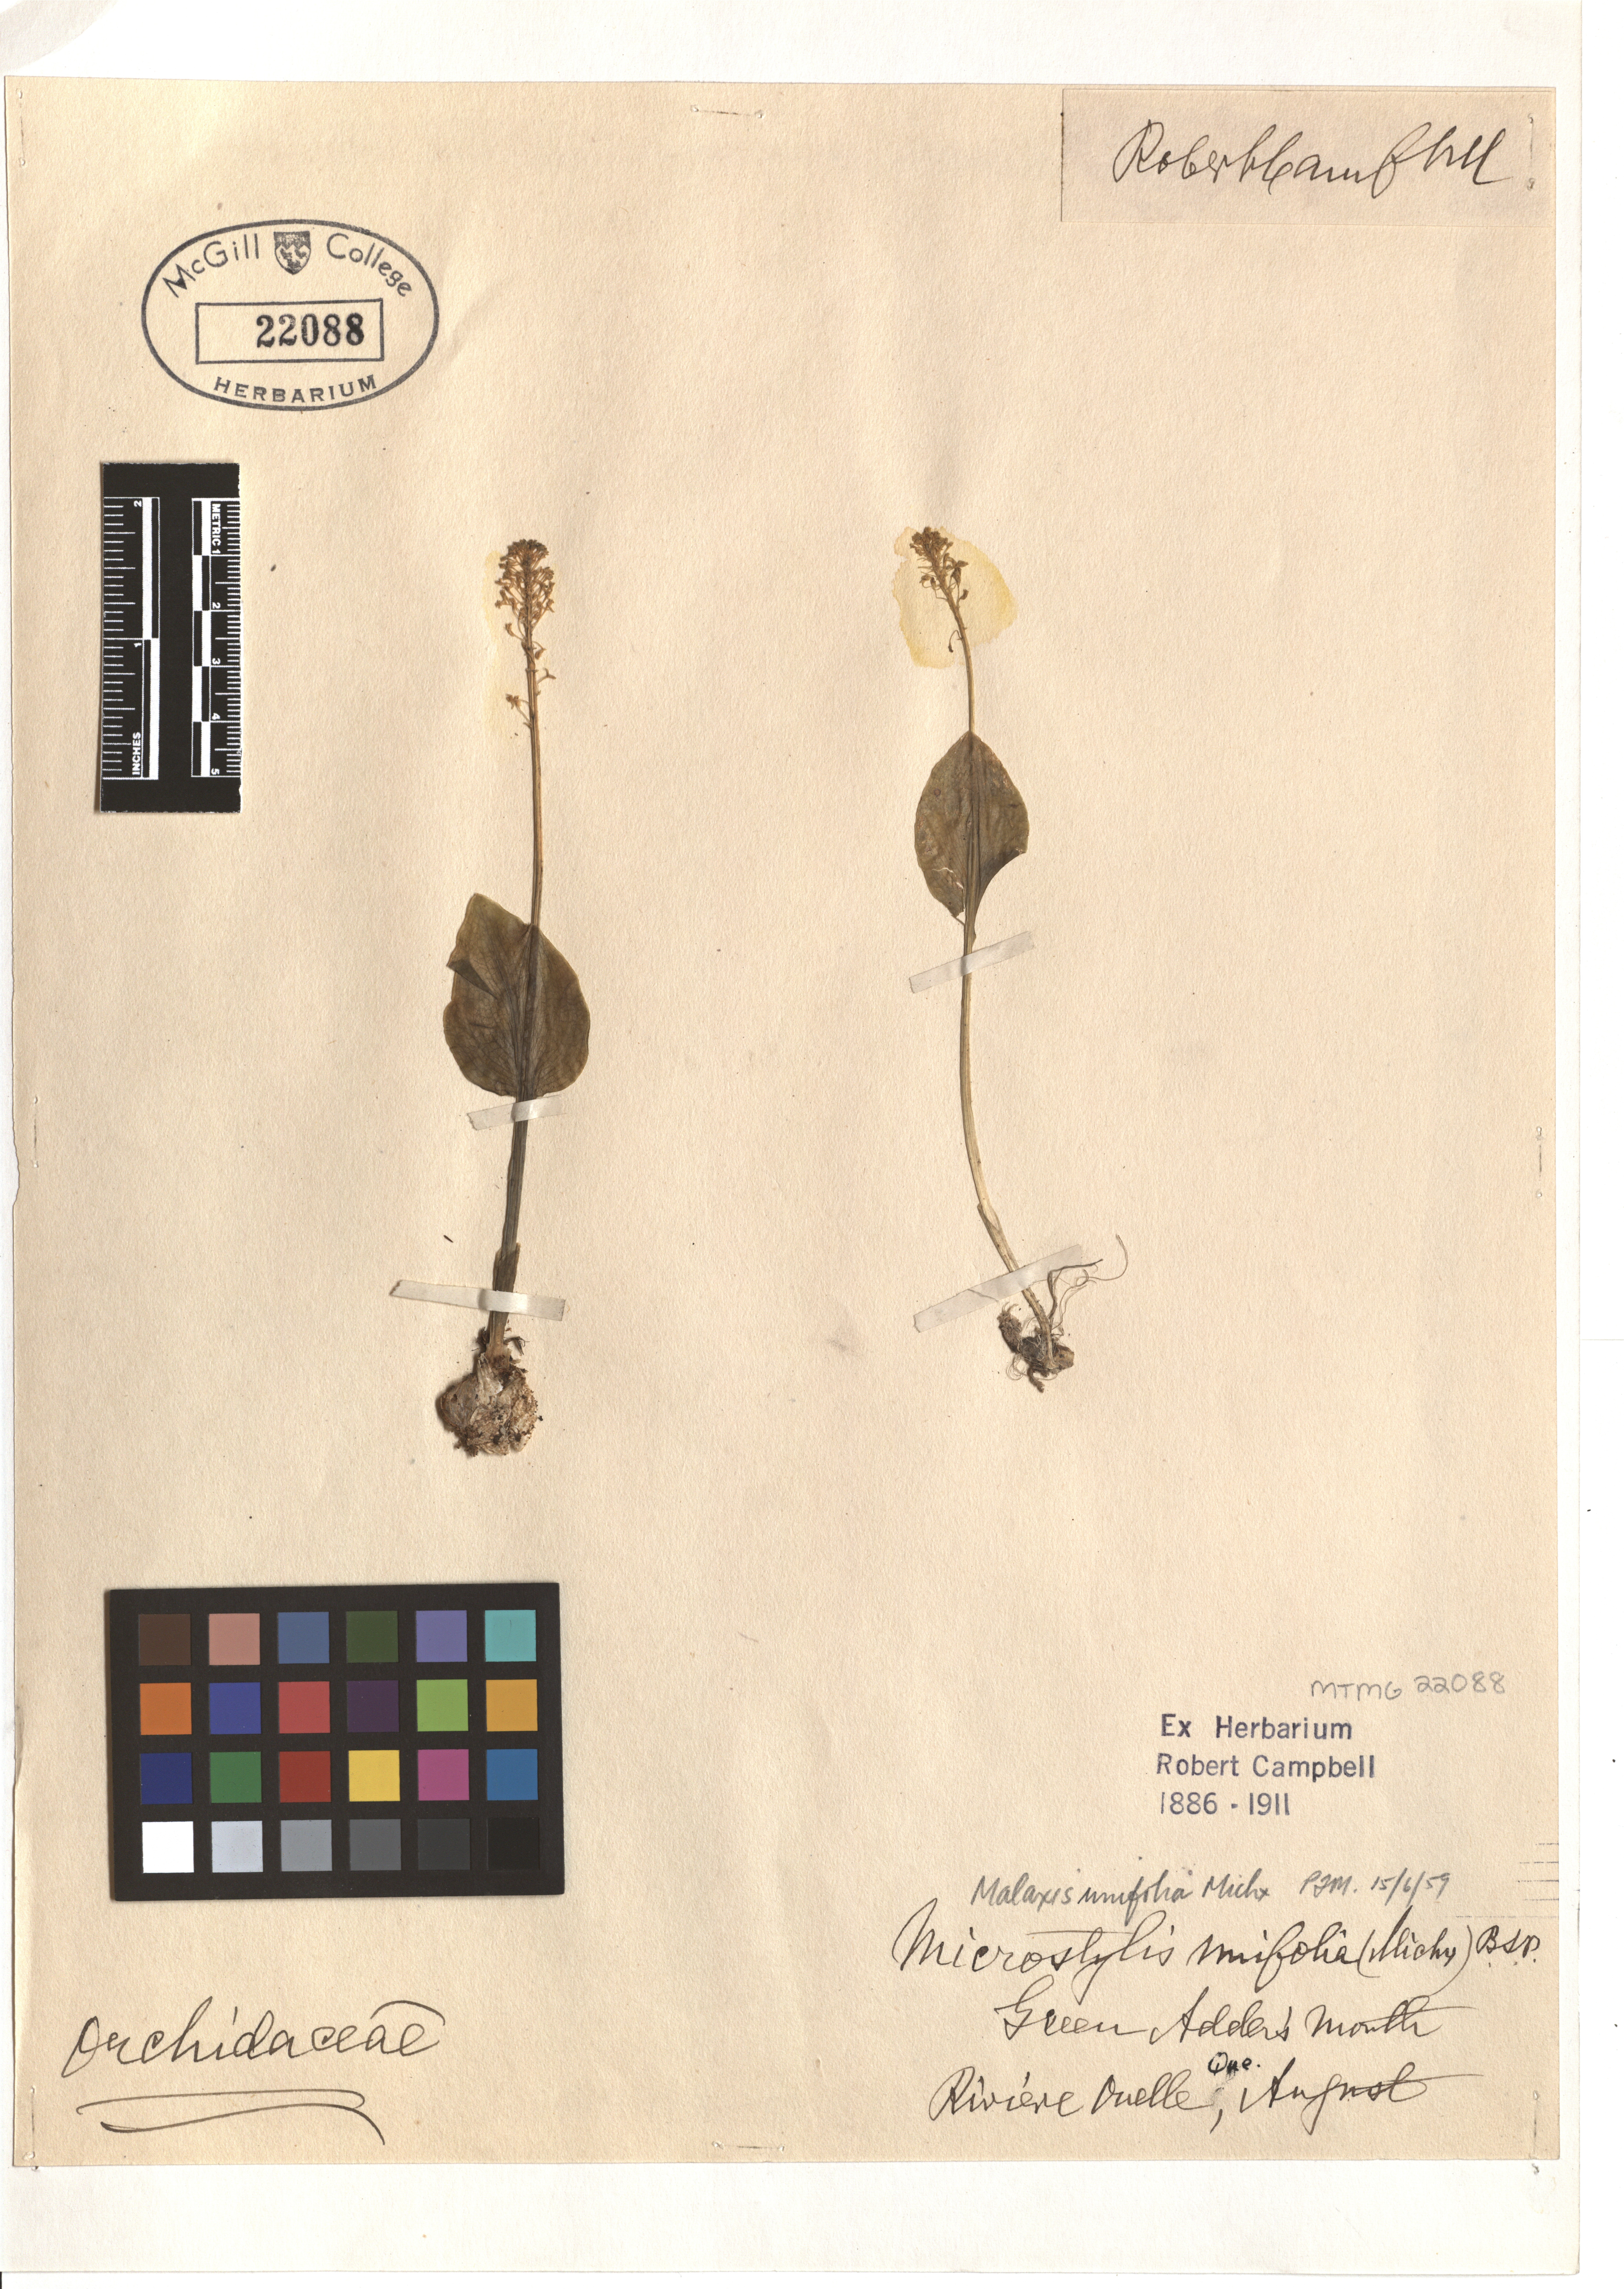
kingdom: Plantae
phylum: Tracheophyta
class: Liliopsida
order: Asparagales
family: Orchidaceae
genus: Malaxis
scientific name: Malaxis unifolia
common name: Green adder's-mouth
